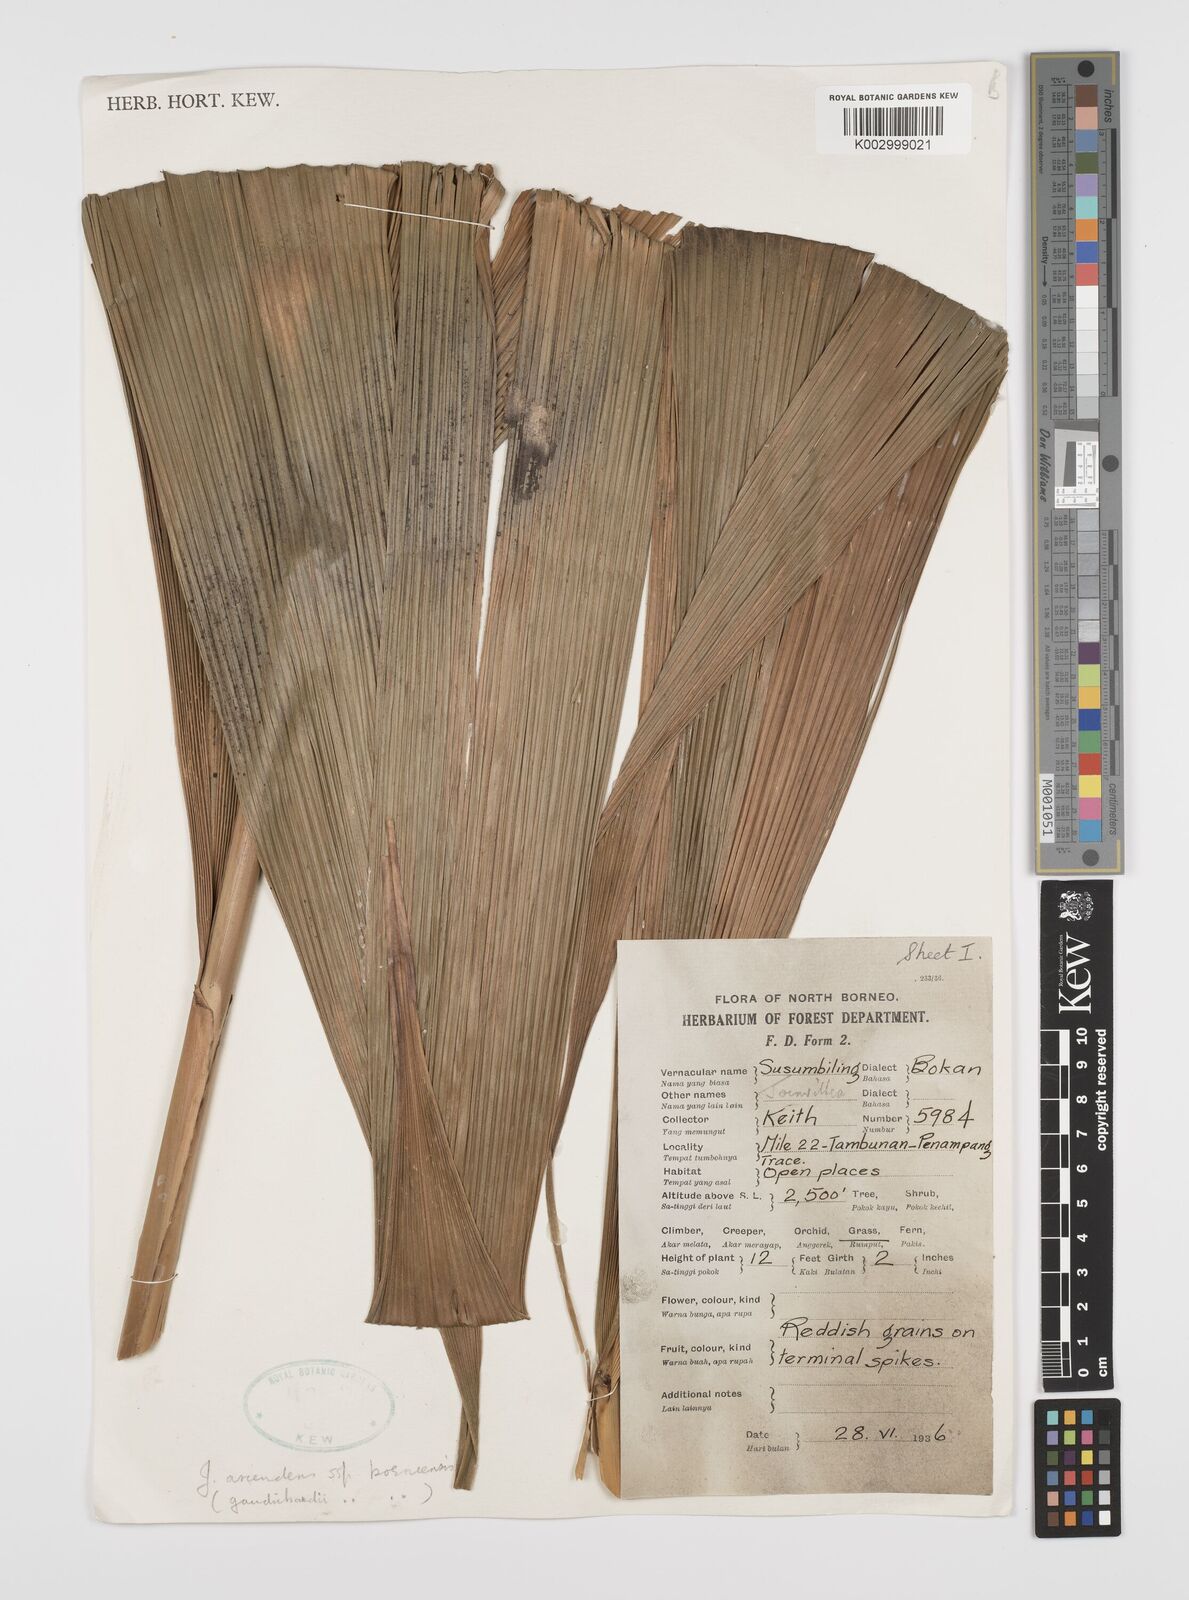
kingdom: Plantae
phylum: Tracheophyta
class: Liliopsida
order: Poales
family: Joinvilleaceae
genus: Joinvillea
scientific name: Joinvillea borneensis
